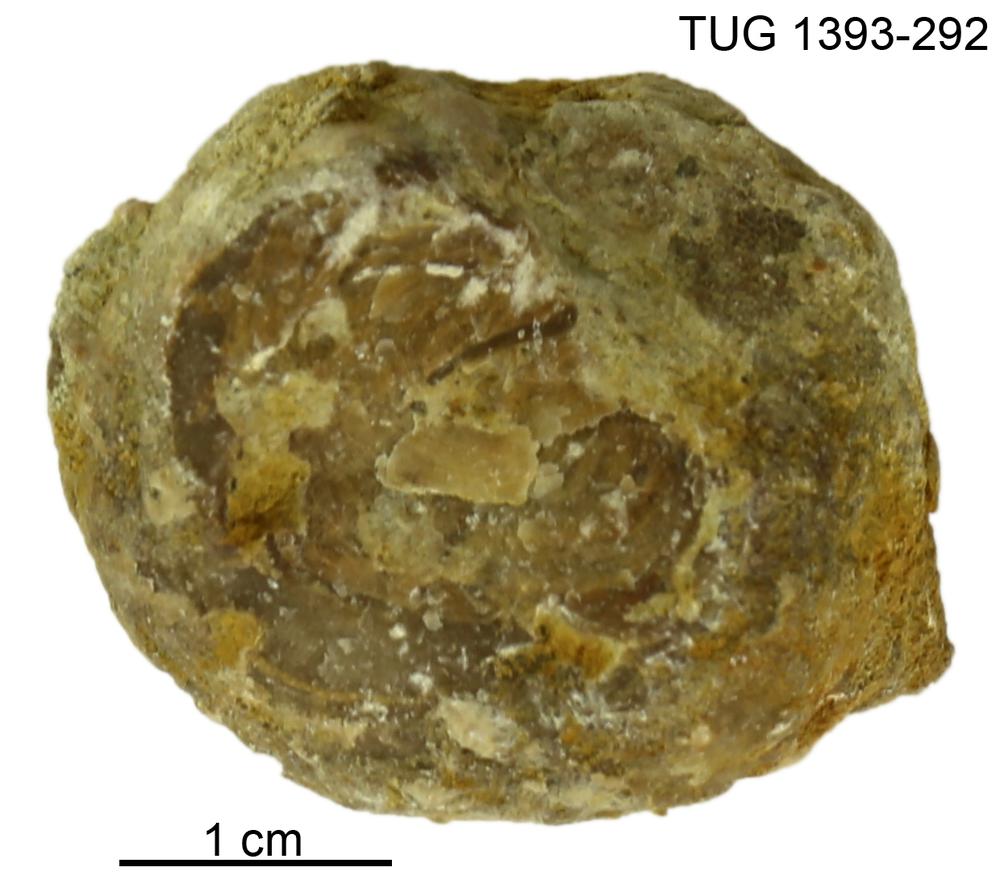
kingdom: Animalia
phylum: Bryozoa
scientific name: Bryozoa
